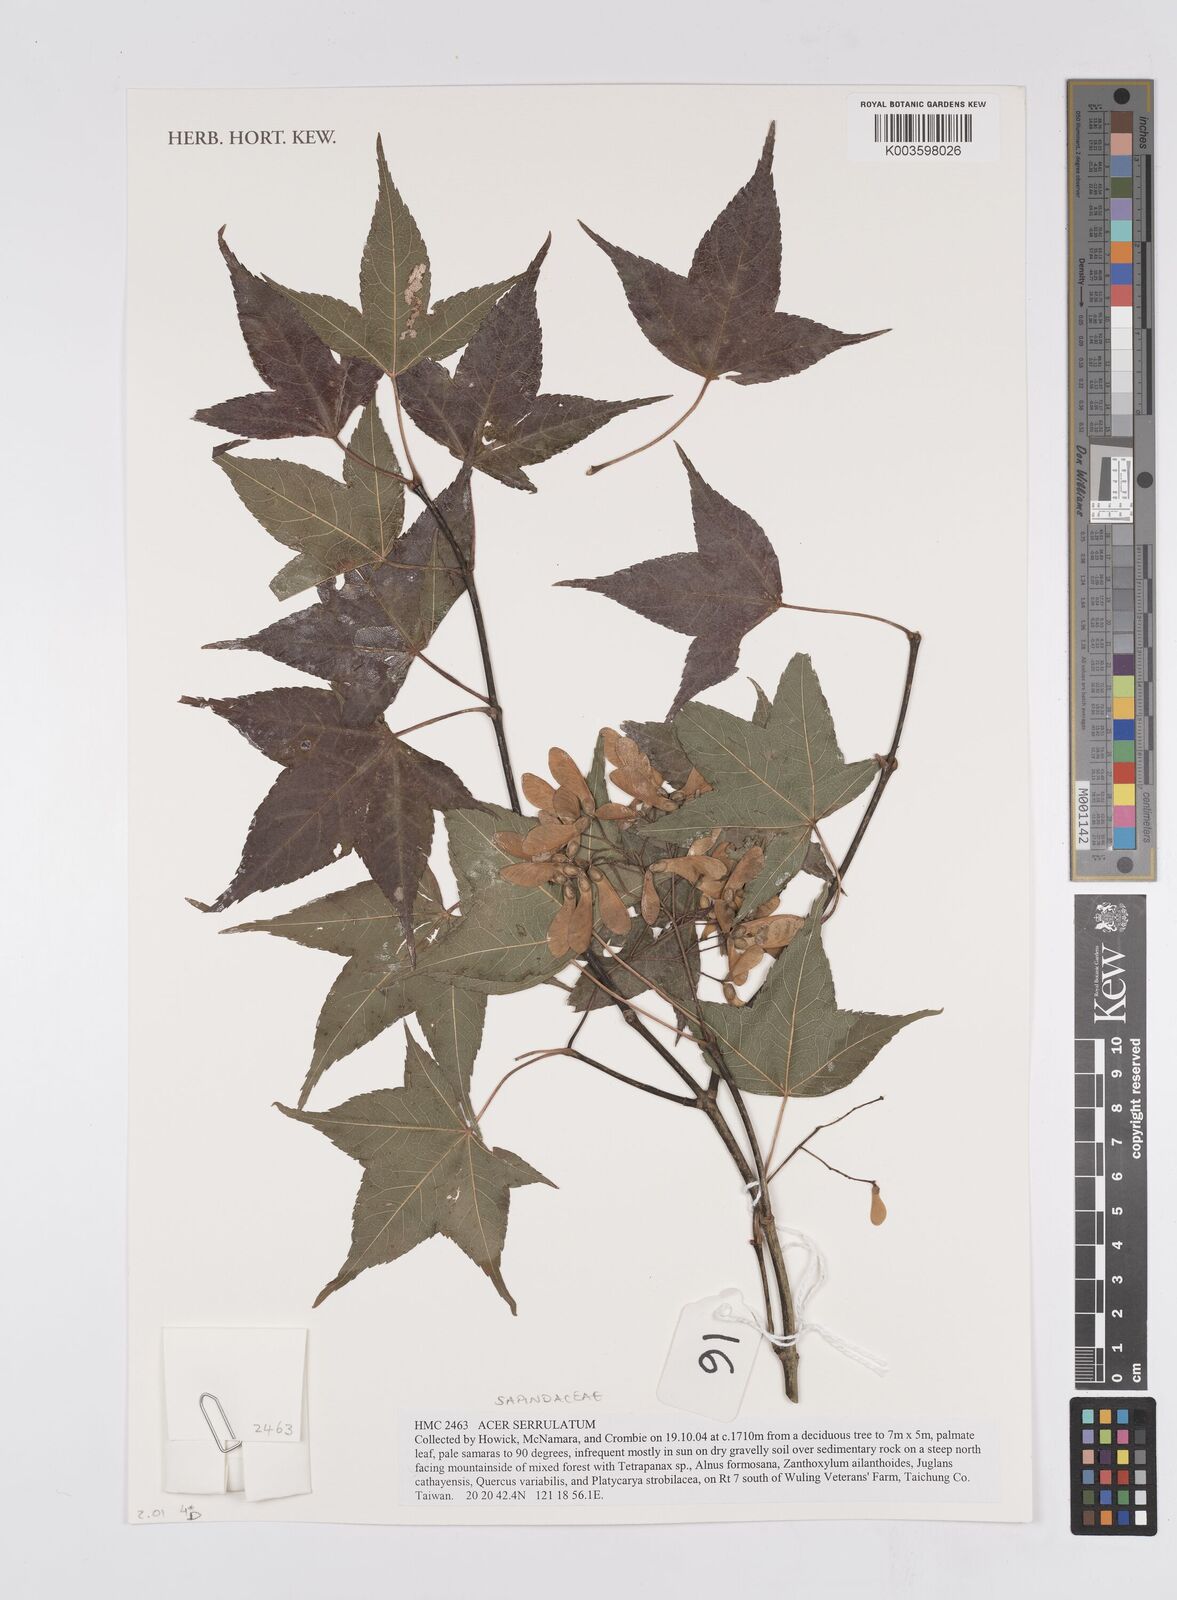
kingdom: Plantae
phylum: Tracheophyta
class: Magnoliopsida
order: Sapindales
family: Sapindaceae
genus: Acer
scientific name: Acer serrulatum
